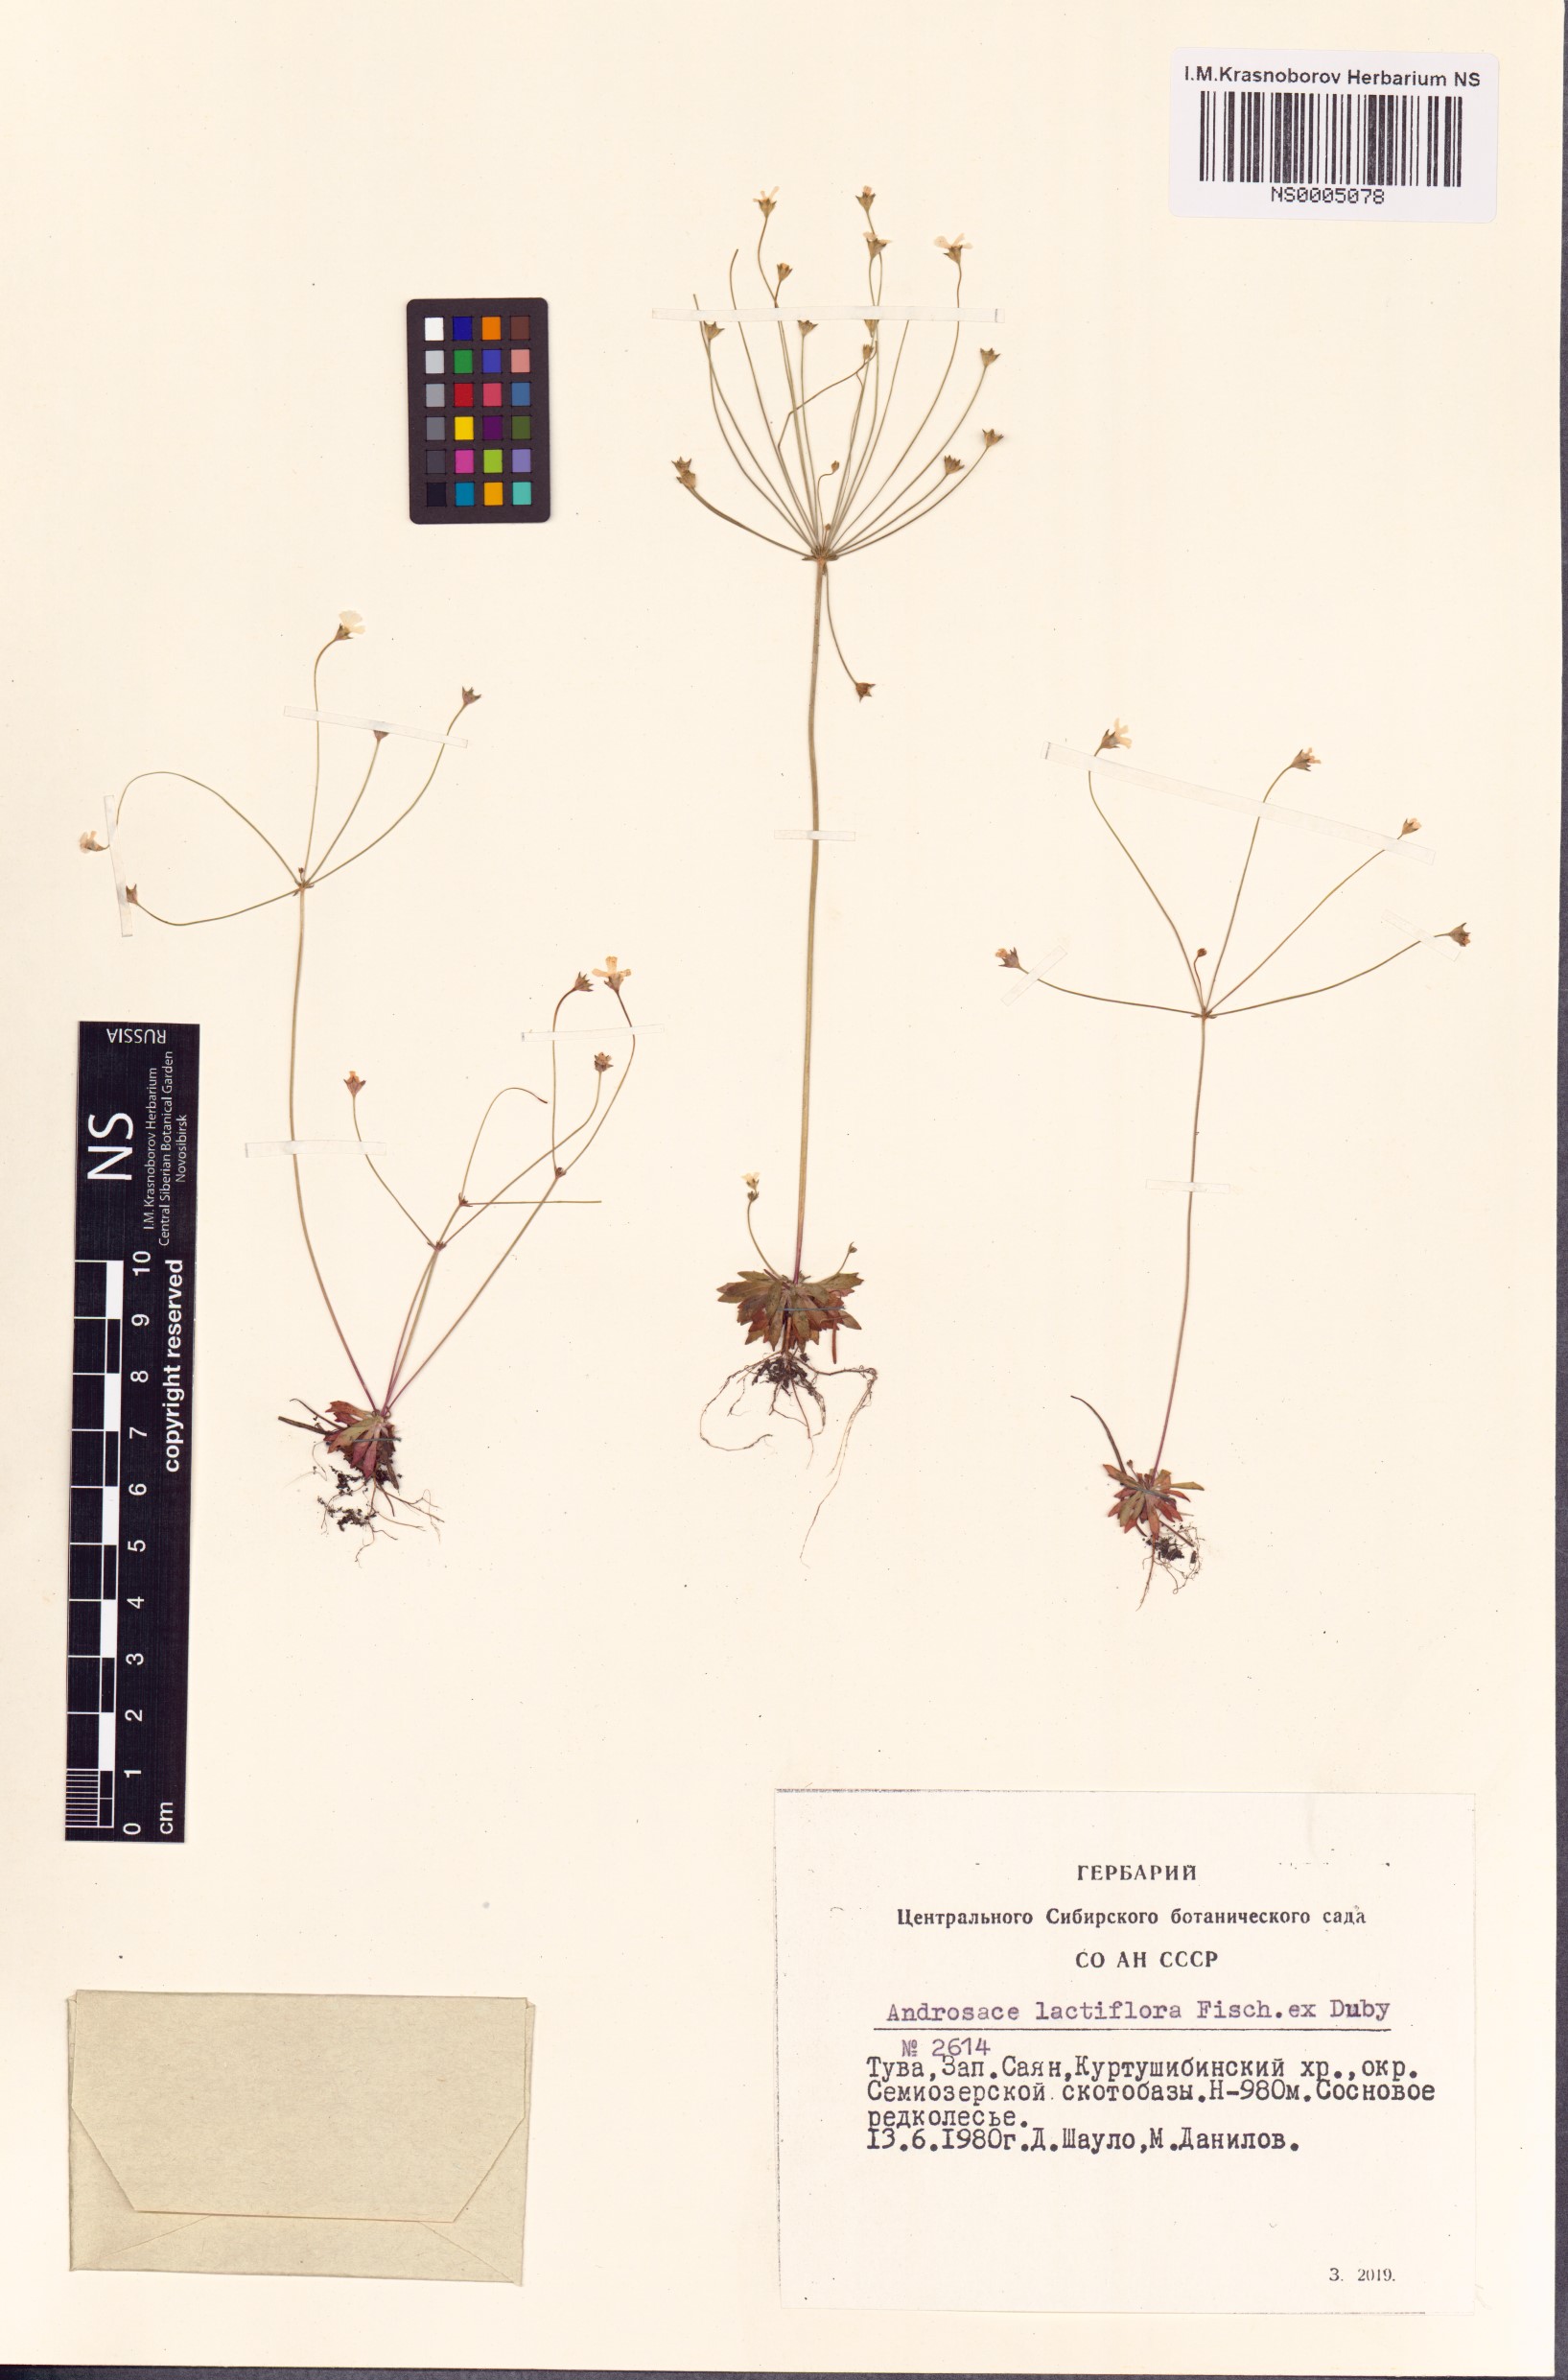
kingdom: Plantae
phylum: Tracheophyta
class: Magnoliopsida
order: Ericales
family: Primulaceae
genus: Androsace
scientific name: Androsace lactiflora
